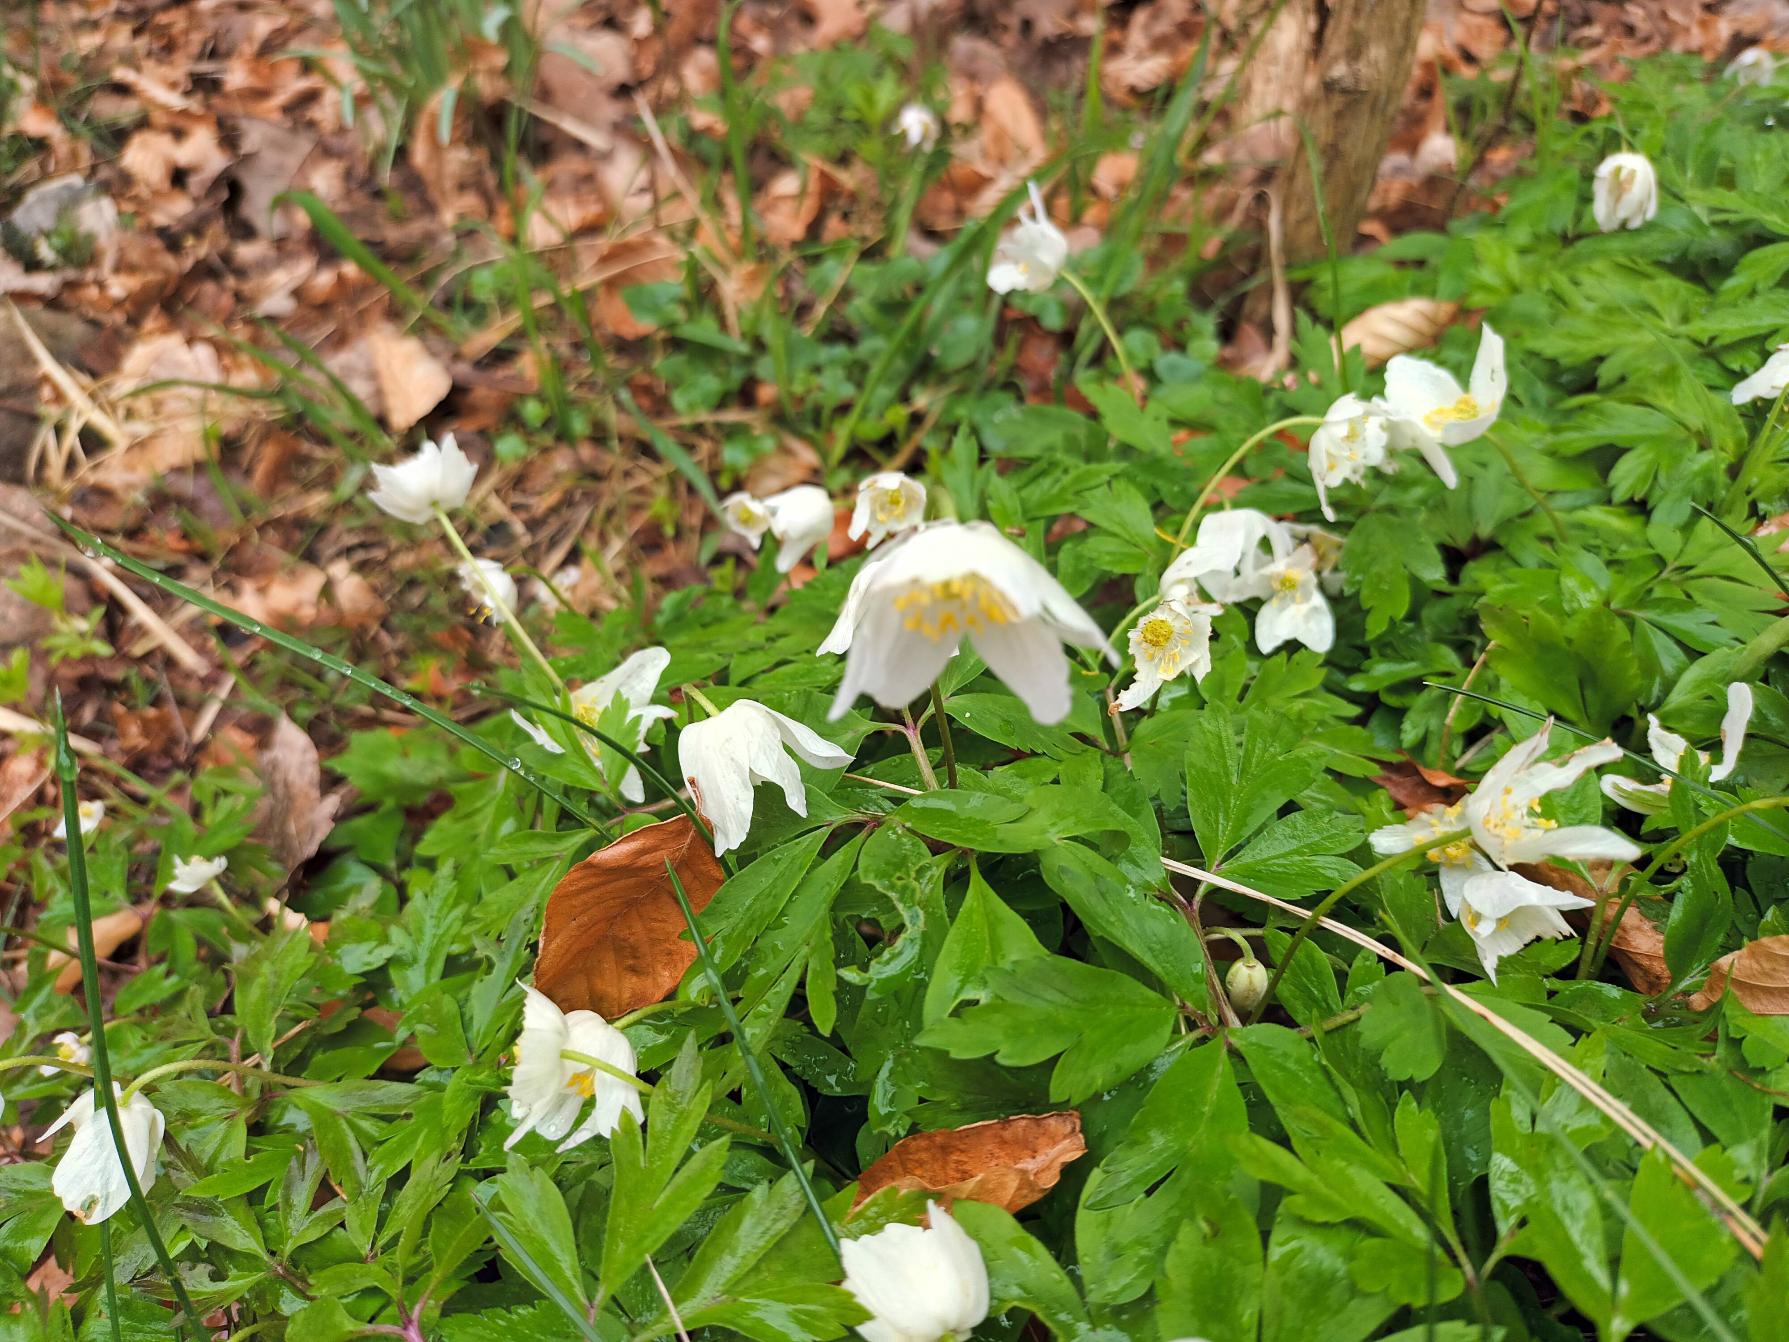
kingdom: Plantae
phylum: Tracheophyta
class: Magnoliopsida
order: Ranunculales
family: Ranunculaceae
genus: Anemone
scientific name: Anemone nemorosa
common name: Hvid anemone
